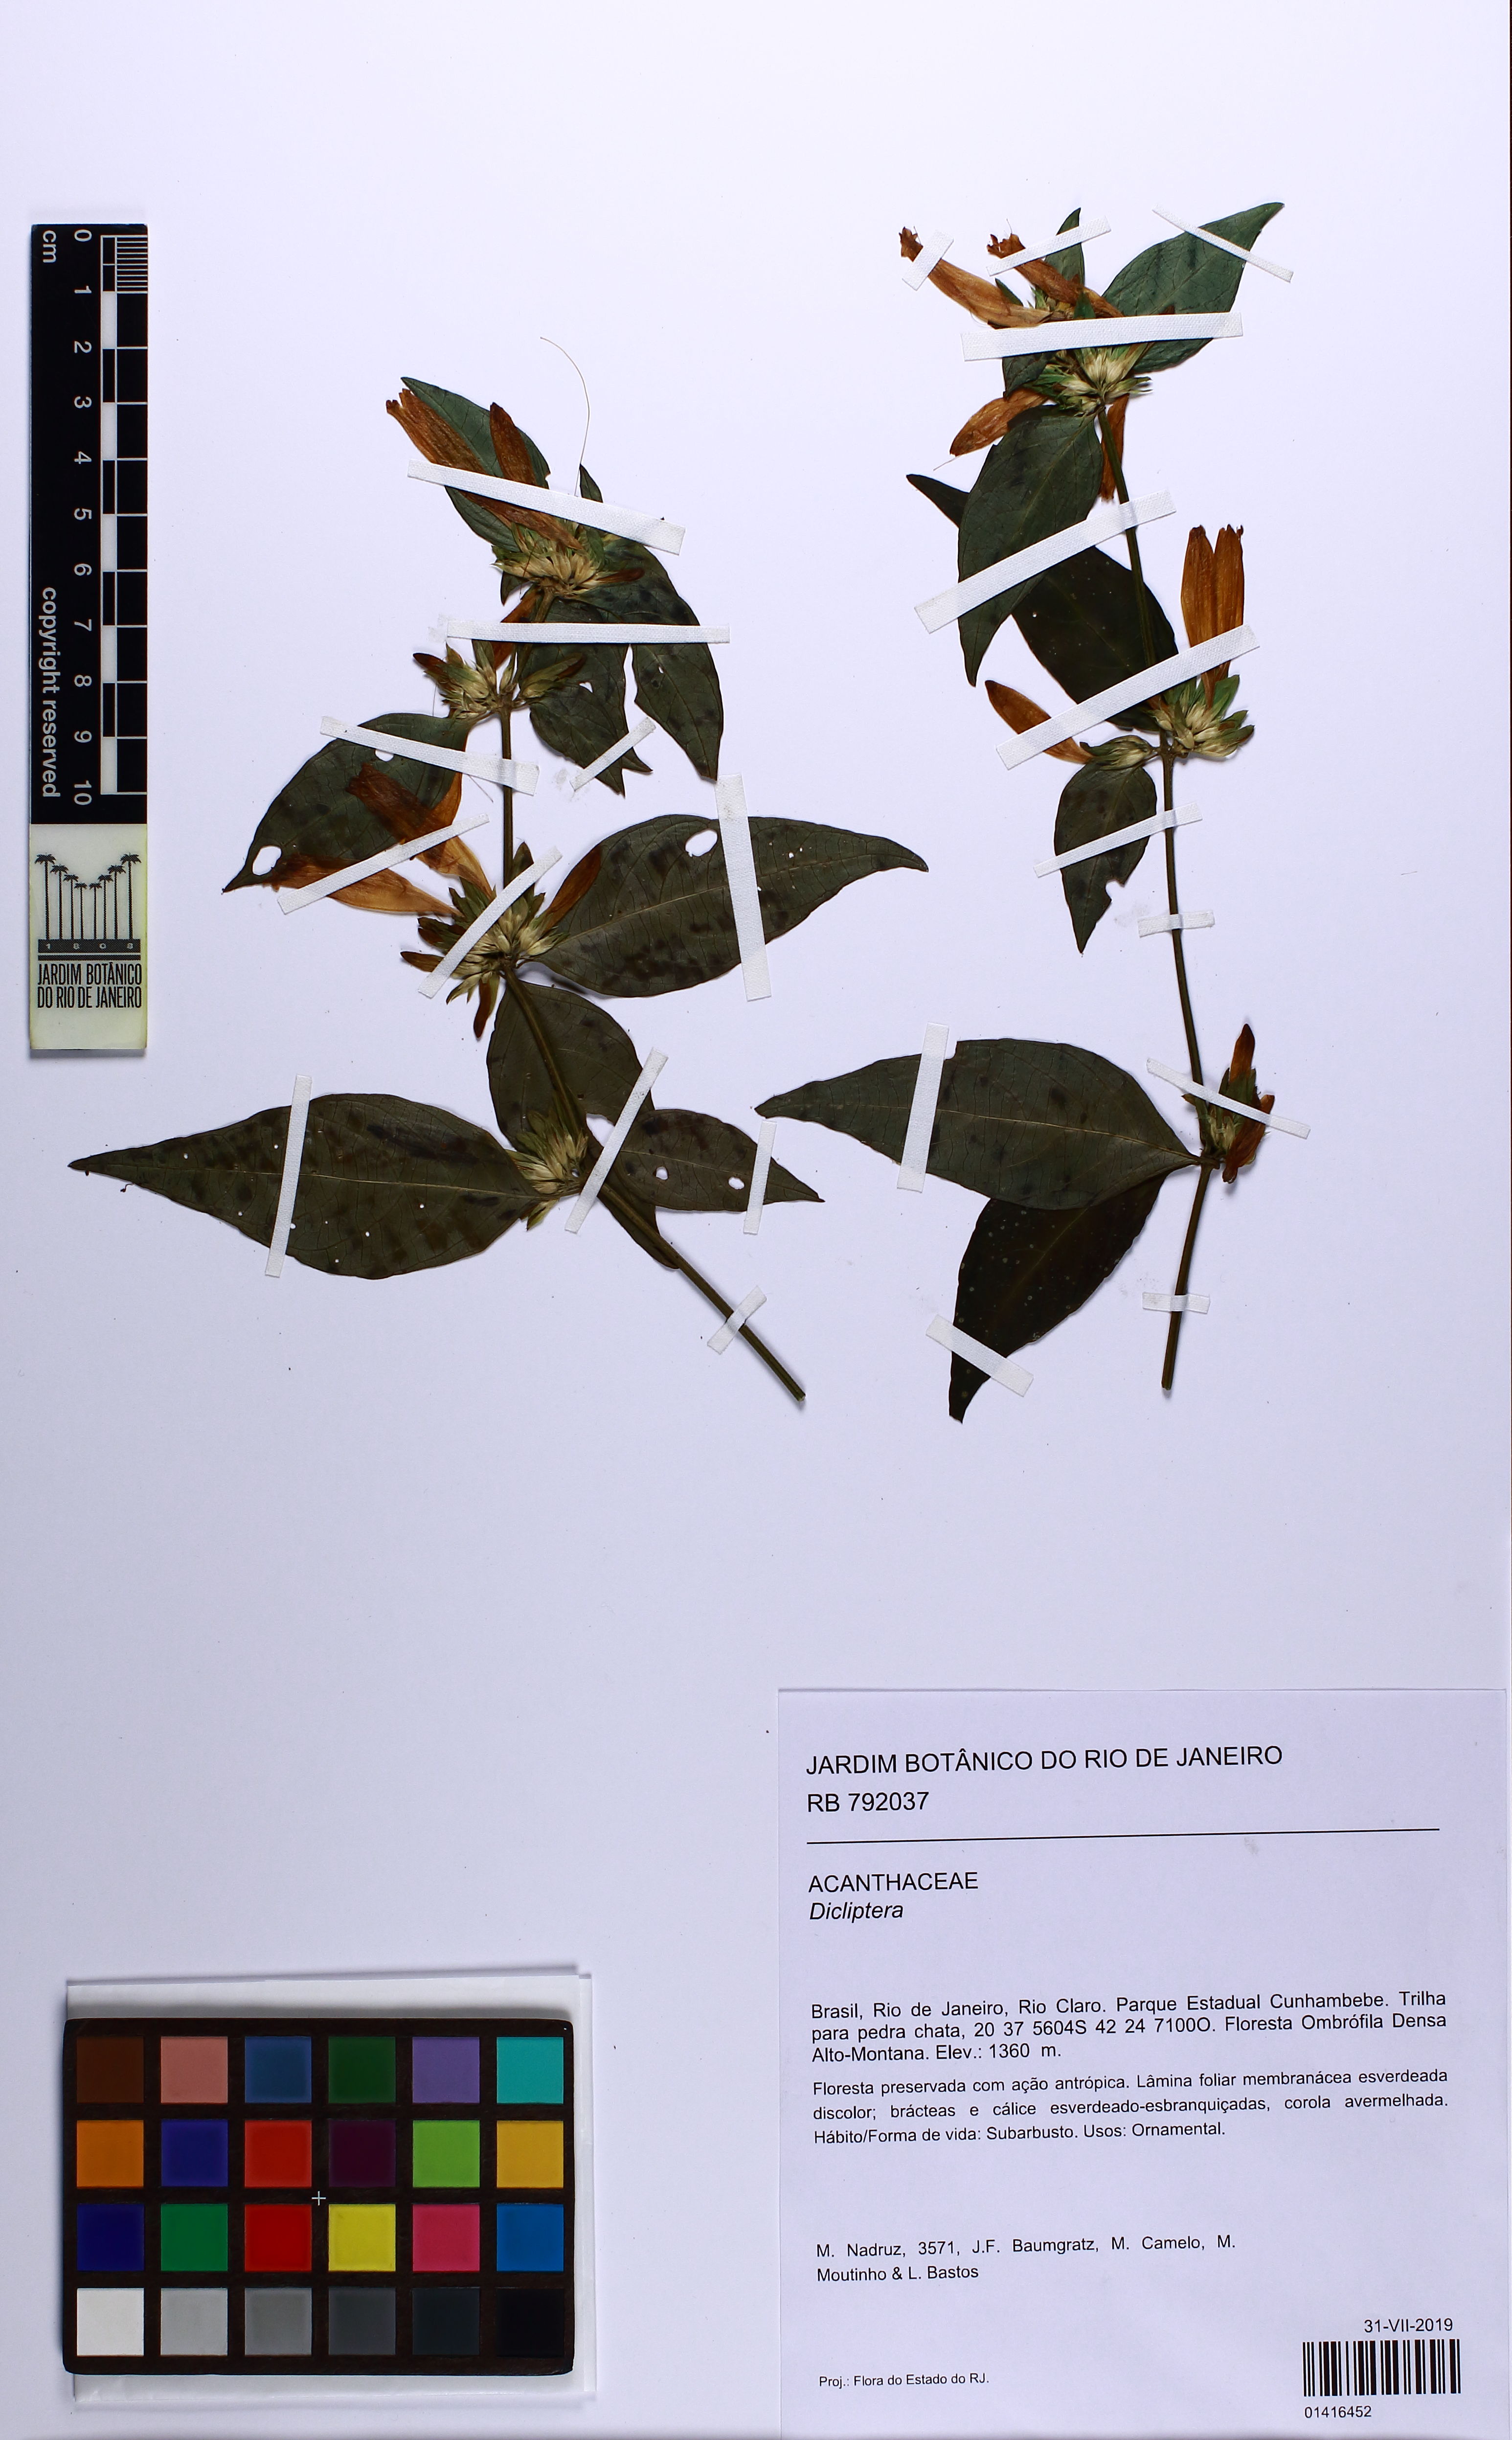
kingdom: Plantae
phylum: Tracheophyta
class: Magnoliopsida
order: Lamiales
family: Acanthaceae
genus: Dicliptera
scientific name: Dicliptera squarrosa
